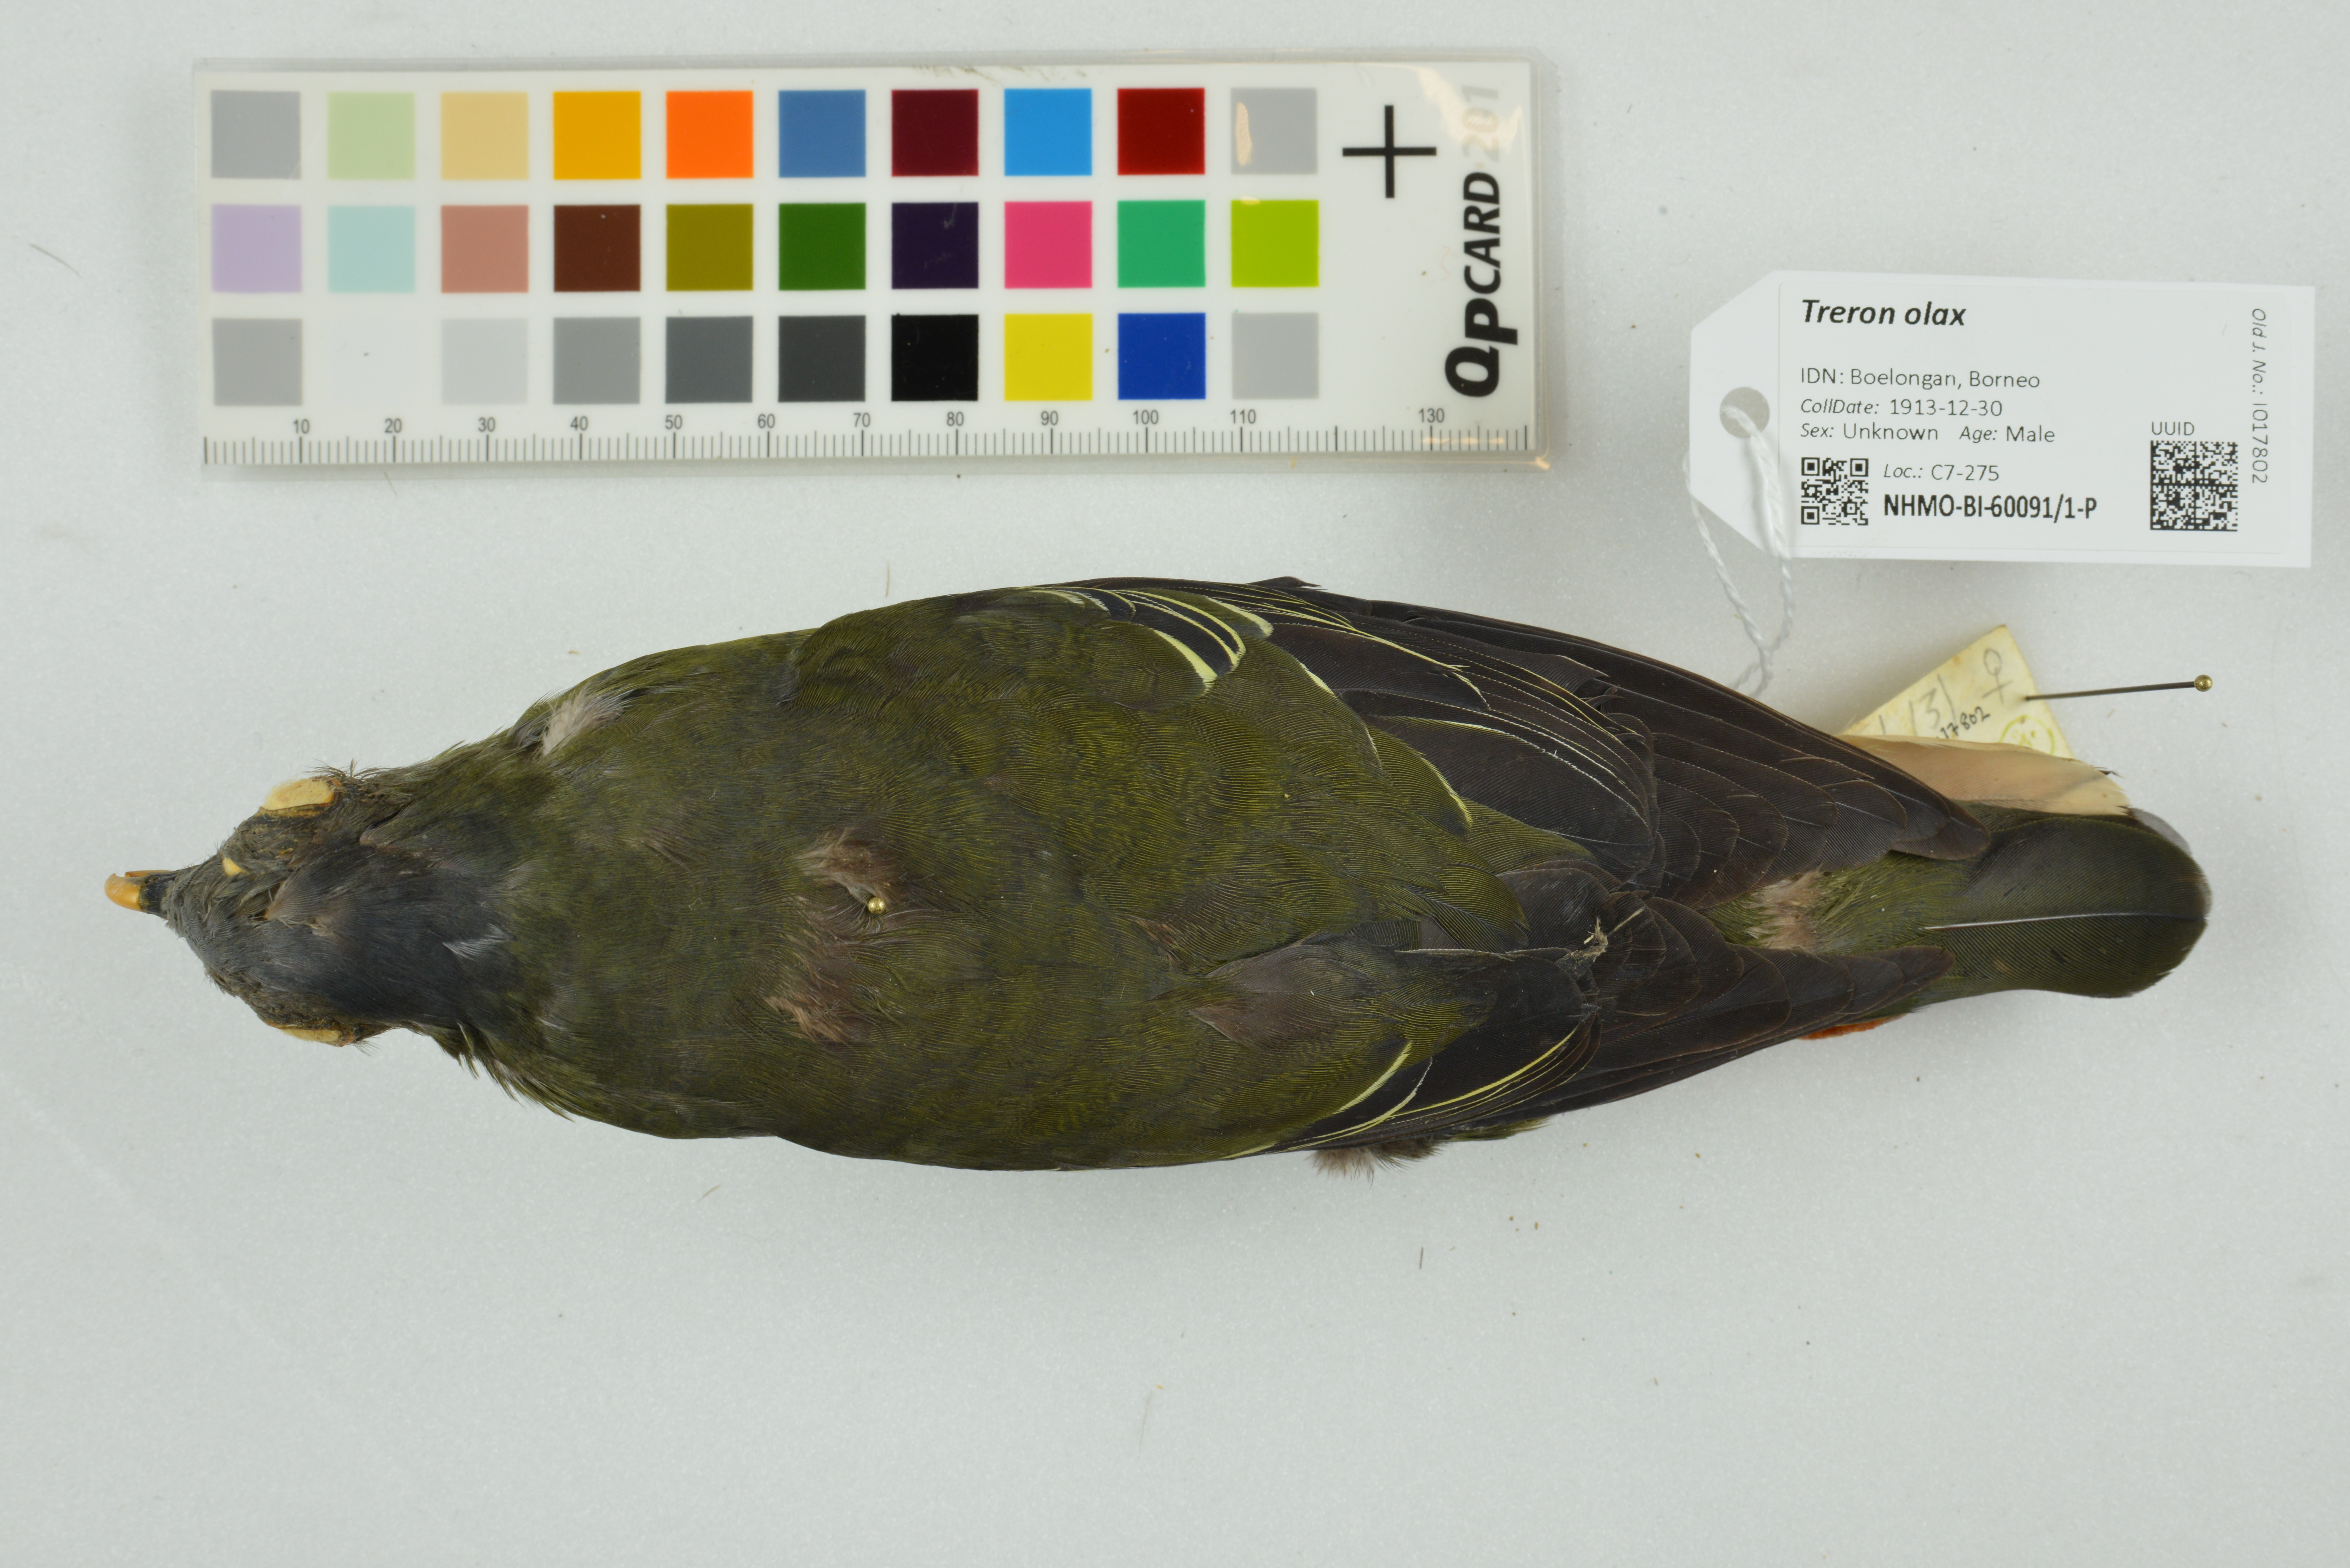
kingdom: Animalia
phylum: Chordata
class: Aves
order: Columbiformes
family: Columbidae
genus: Treron
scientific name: Treron olax
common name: Little green pigeon
